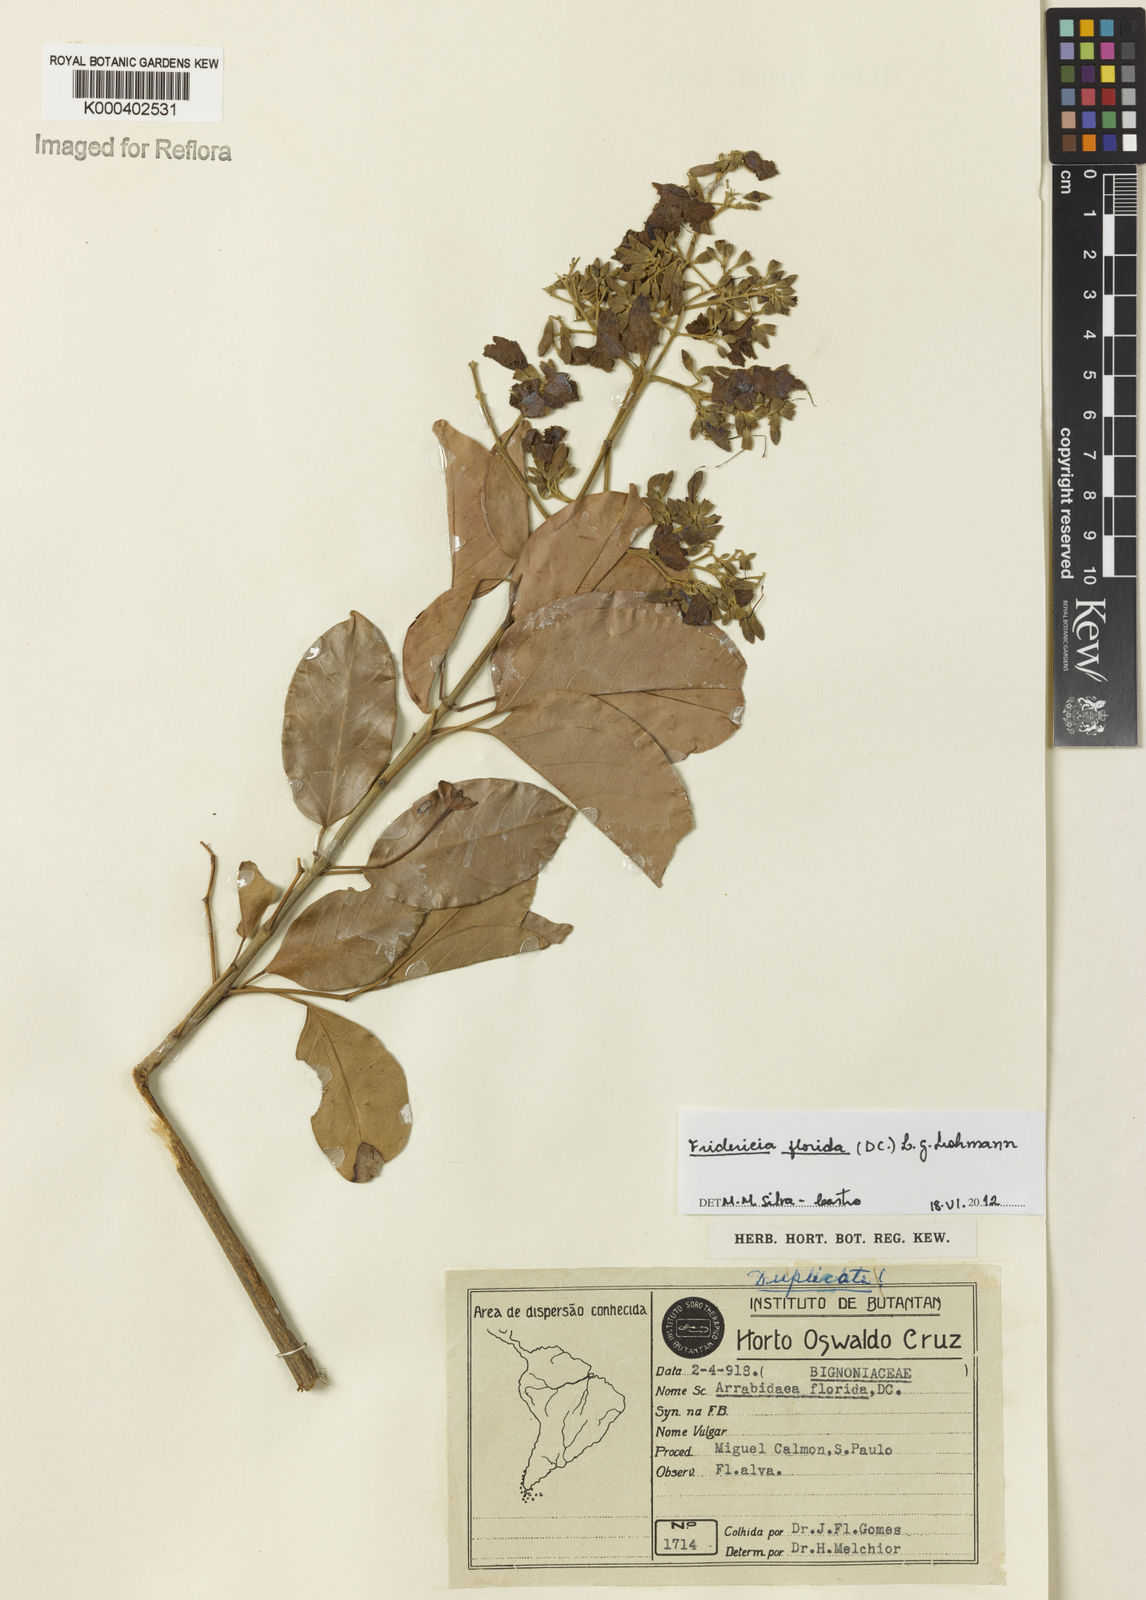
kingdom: Plantae
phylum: Tracheophyta
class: Magnoliopsida
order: Lamiales
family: Bignoniaceae
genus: Fridericia
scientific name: Fridericia florida
